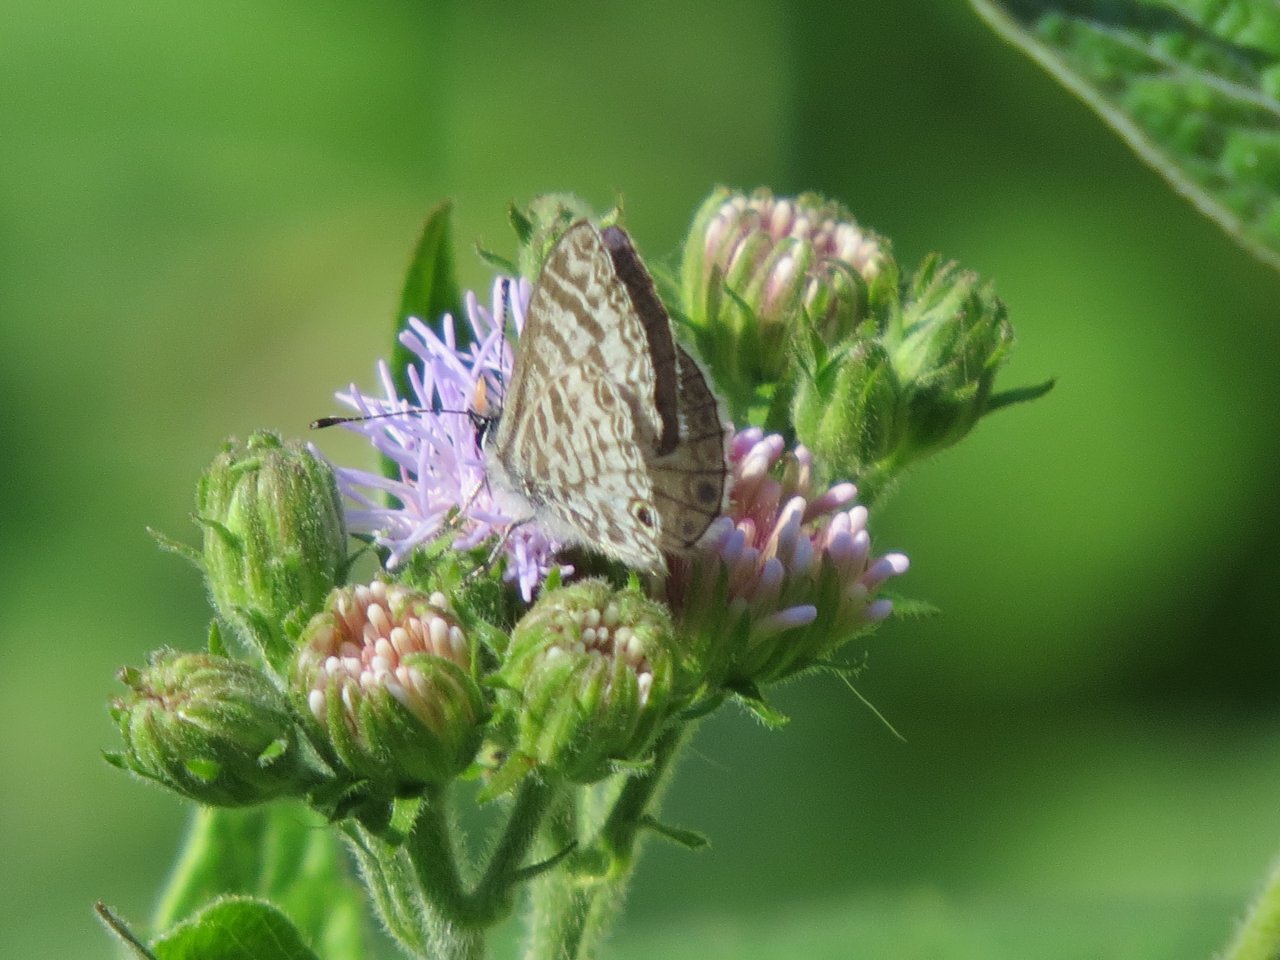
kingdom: Animalia
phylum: Arthropoda
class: Insecta
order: Lepidoptera
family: Lycaenidae
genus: Leptotes
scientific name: Leptotes cassius
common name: Cassius Blue
